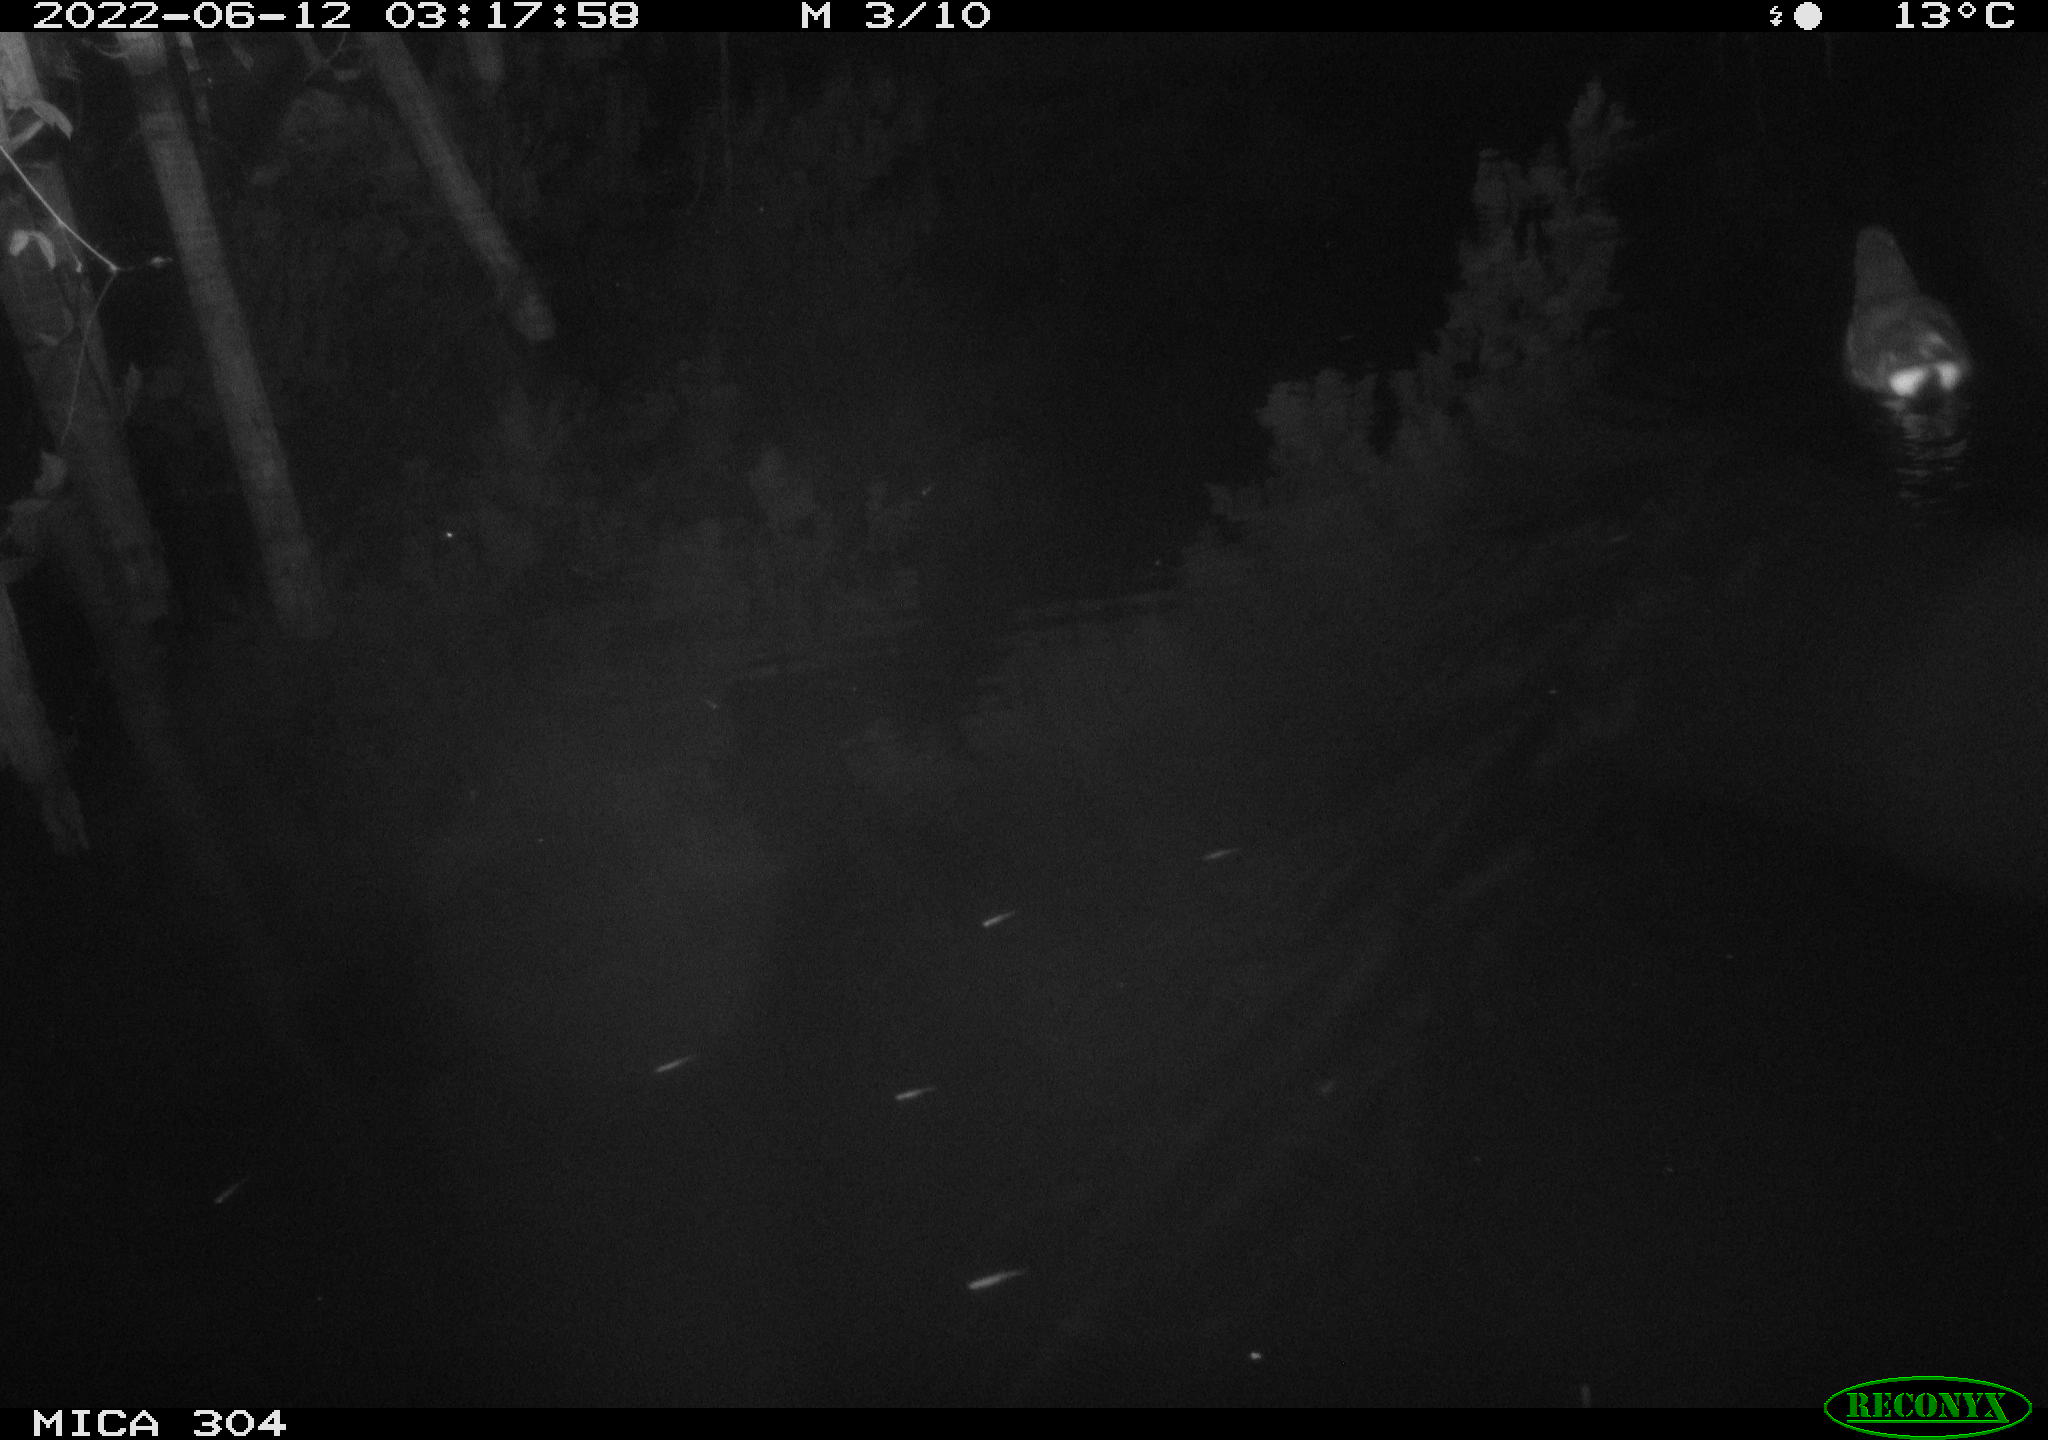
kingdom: Animalia
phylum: Chordata
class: Aves
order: Gruiformes
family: Rallidae
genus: Gallinula
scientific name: Gallinula chloropus
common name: Common moorhen
